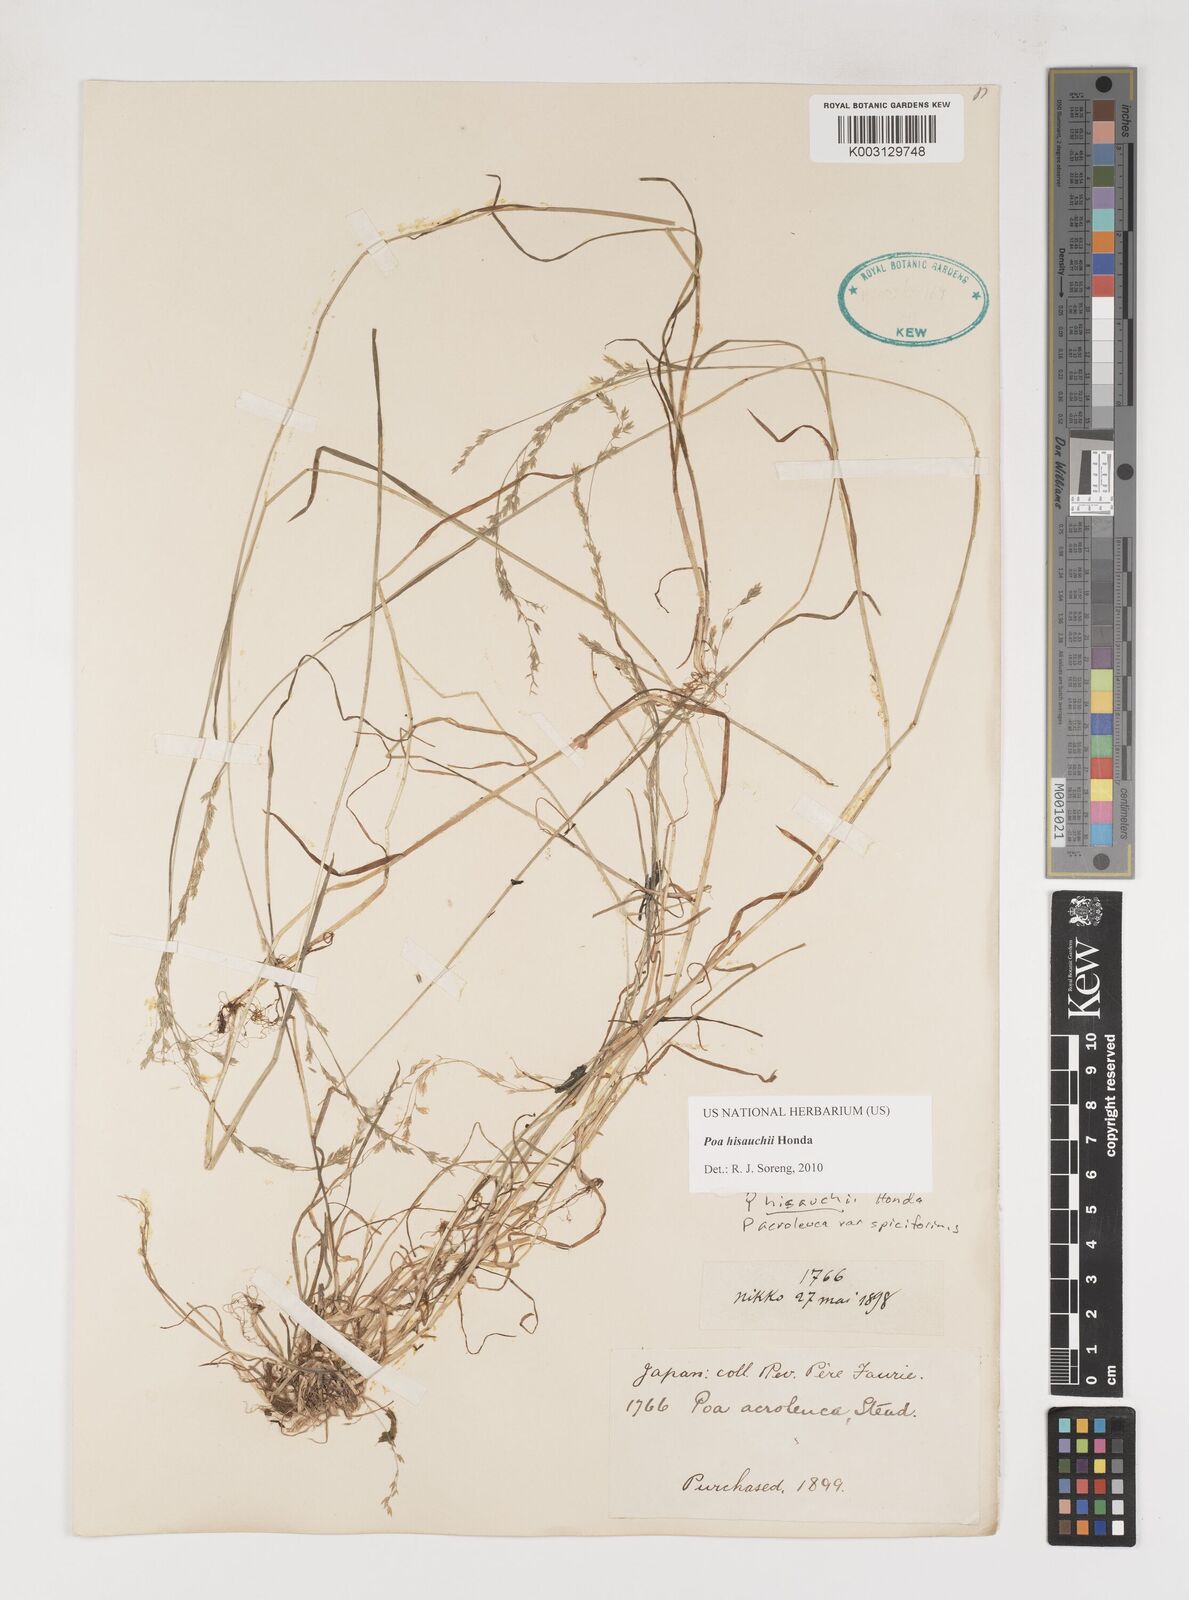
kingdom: Plantae
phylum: Tracheophyta
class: Liliopsida
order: Poales
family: Poaceae
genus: Poa
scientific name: Poa hisauchii
